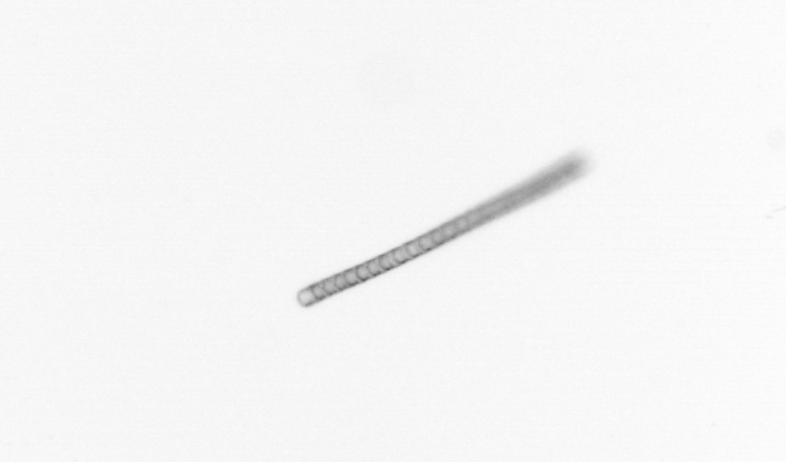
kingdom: Chromista
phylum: Ochrophyta
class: Bacillariophyceae
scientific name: Bacillariophyceae
